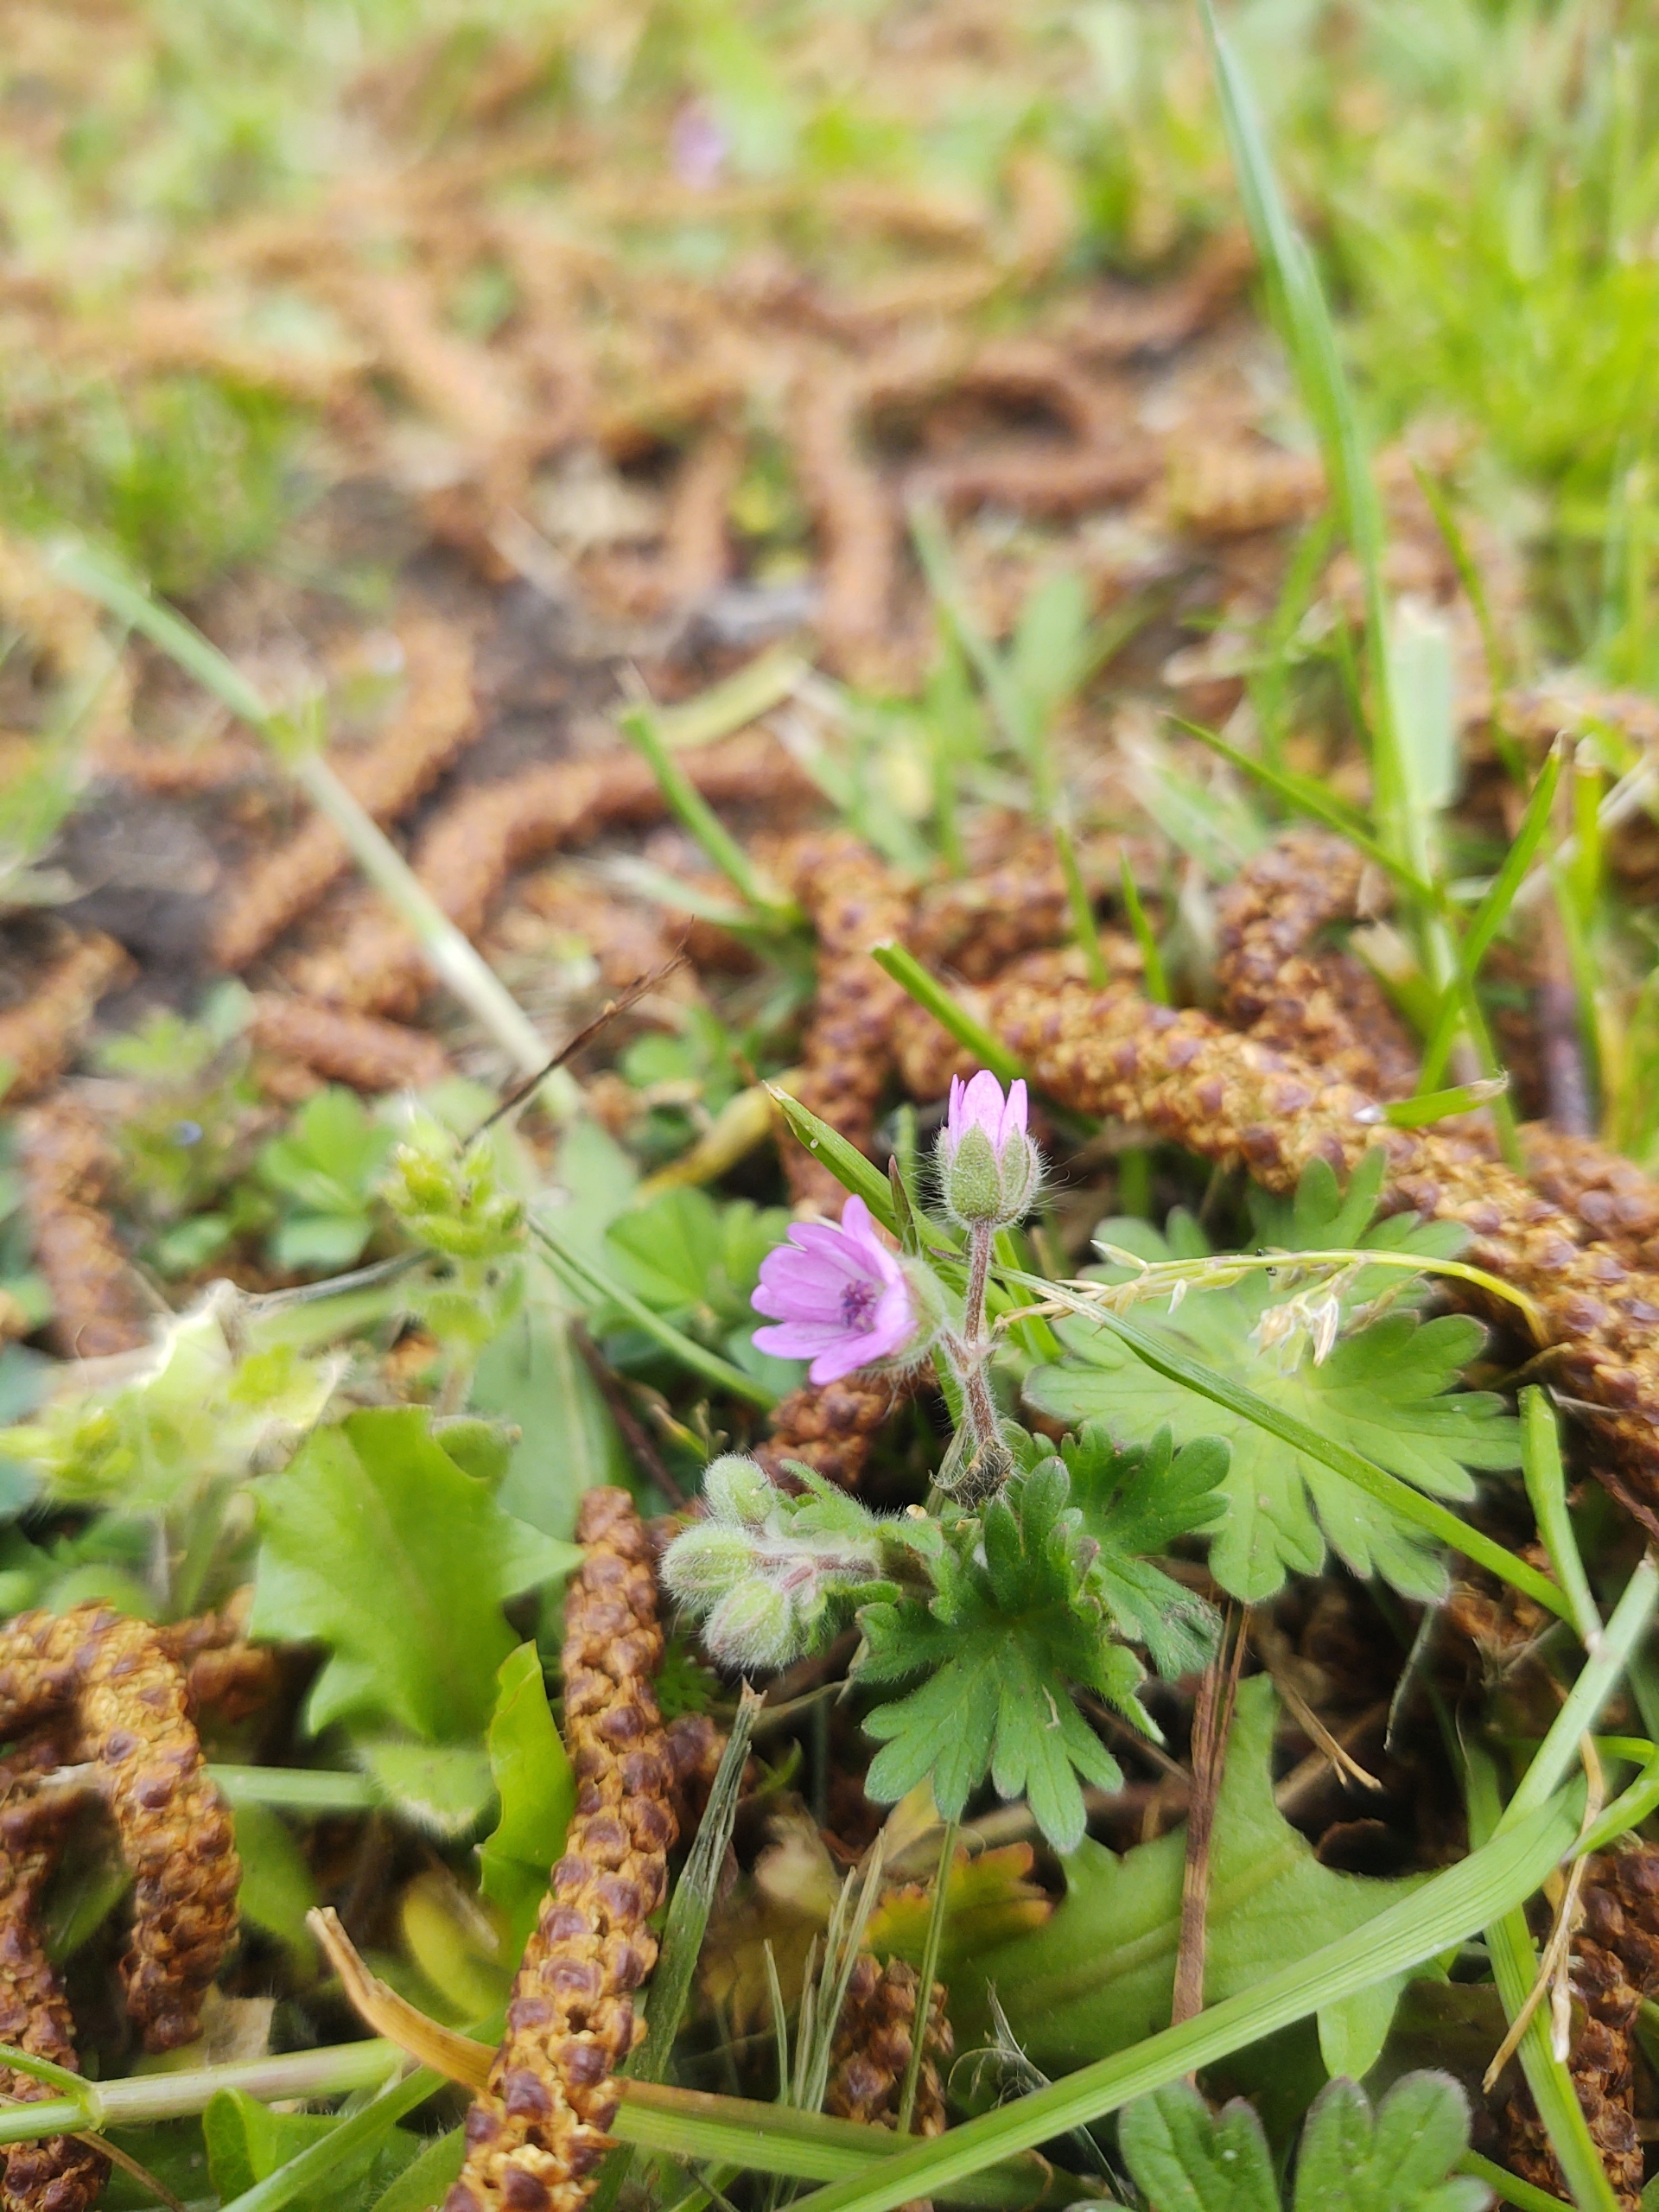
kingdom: Plantae
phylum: Tracheophyta
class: Magnoliopsida
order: Geraniales
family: Geraniaceae
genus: Geranium
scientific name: Geranium molle
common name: Blød storkenæb
